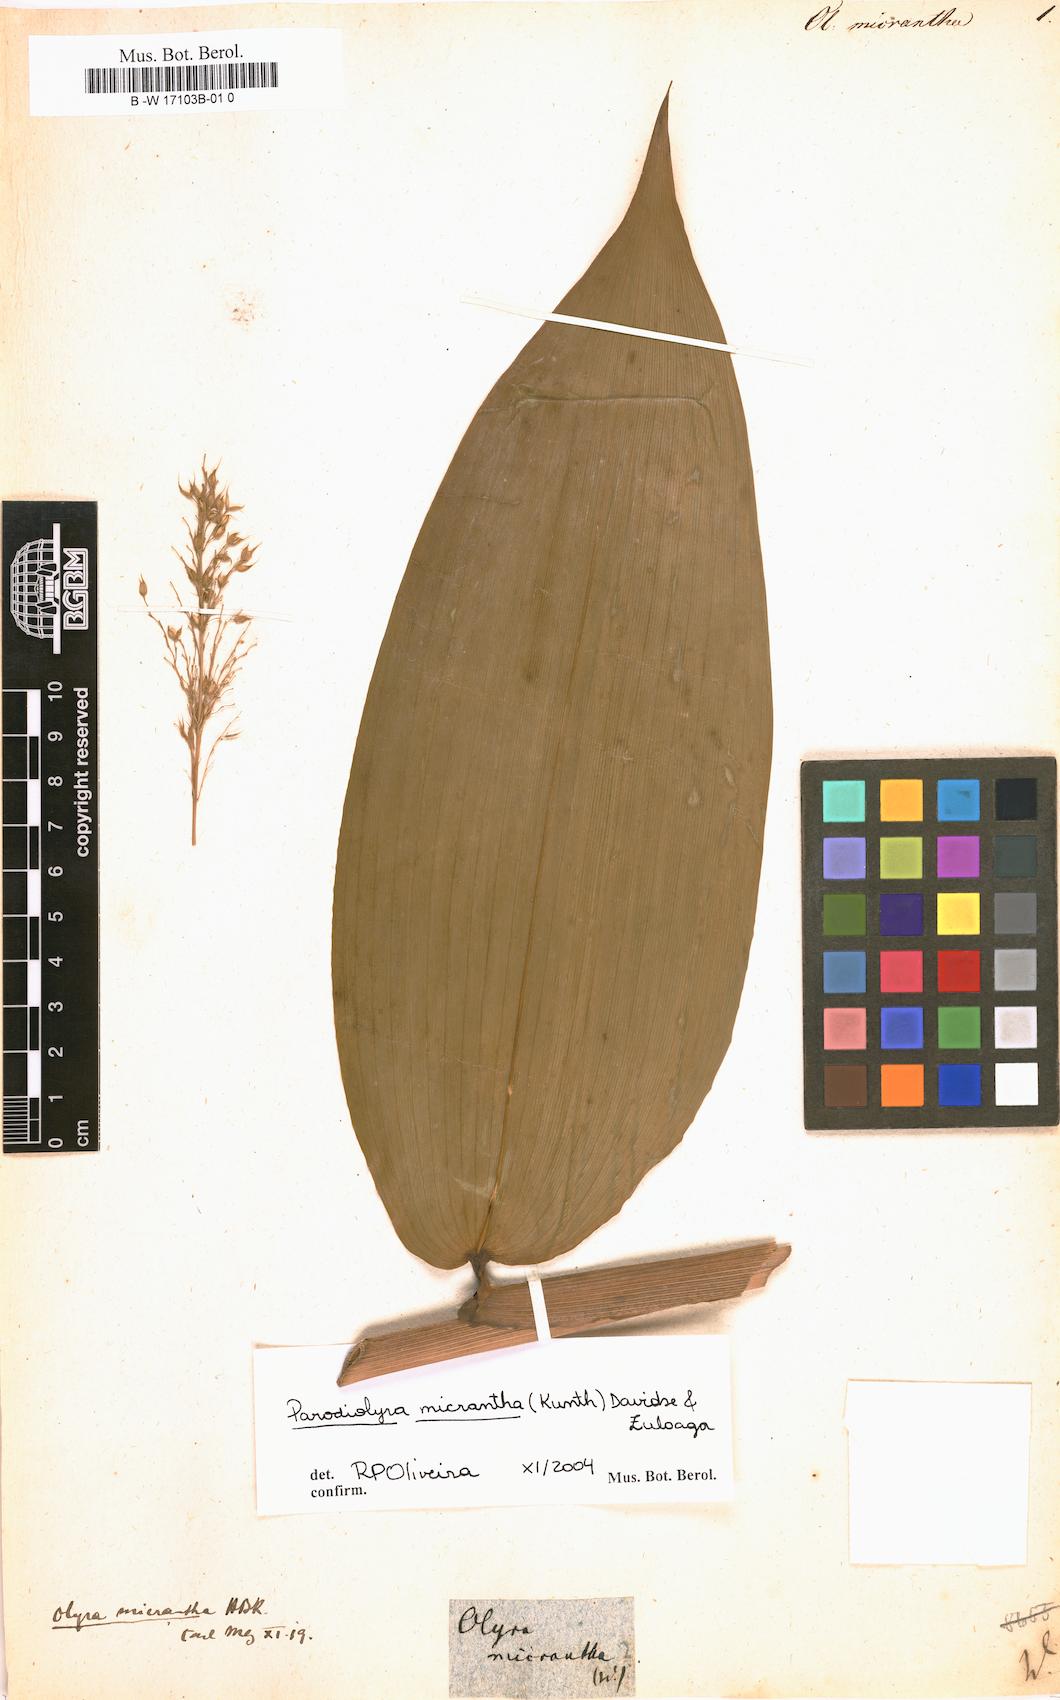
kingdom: Plantae
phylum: Tracheophyta
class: Liliopsida
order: Poales
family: Poaceae
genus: Taquara
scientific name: Taquara micrantha
